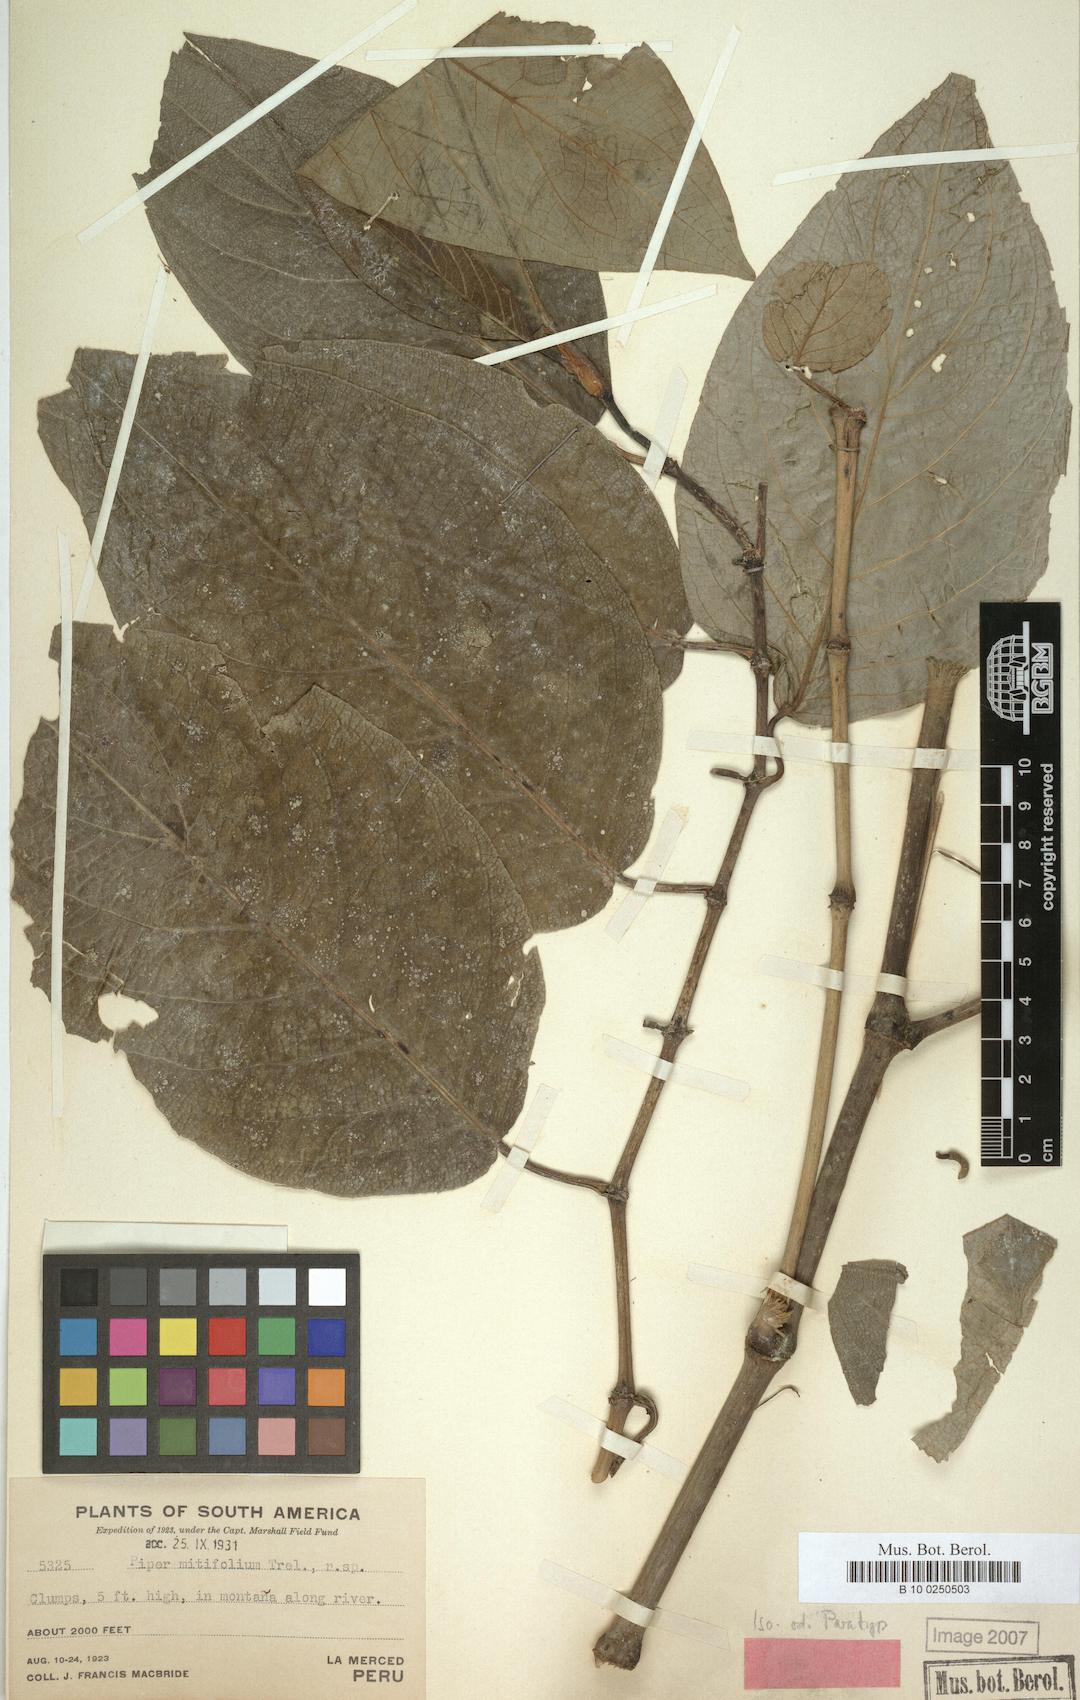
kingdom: Plantae
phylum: Tracheophyta
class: Magnoliopsida
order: Piperales
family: Piperaceae
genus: Piper
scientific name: Piper mitifolium
